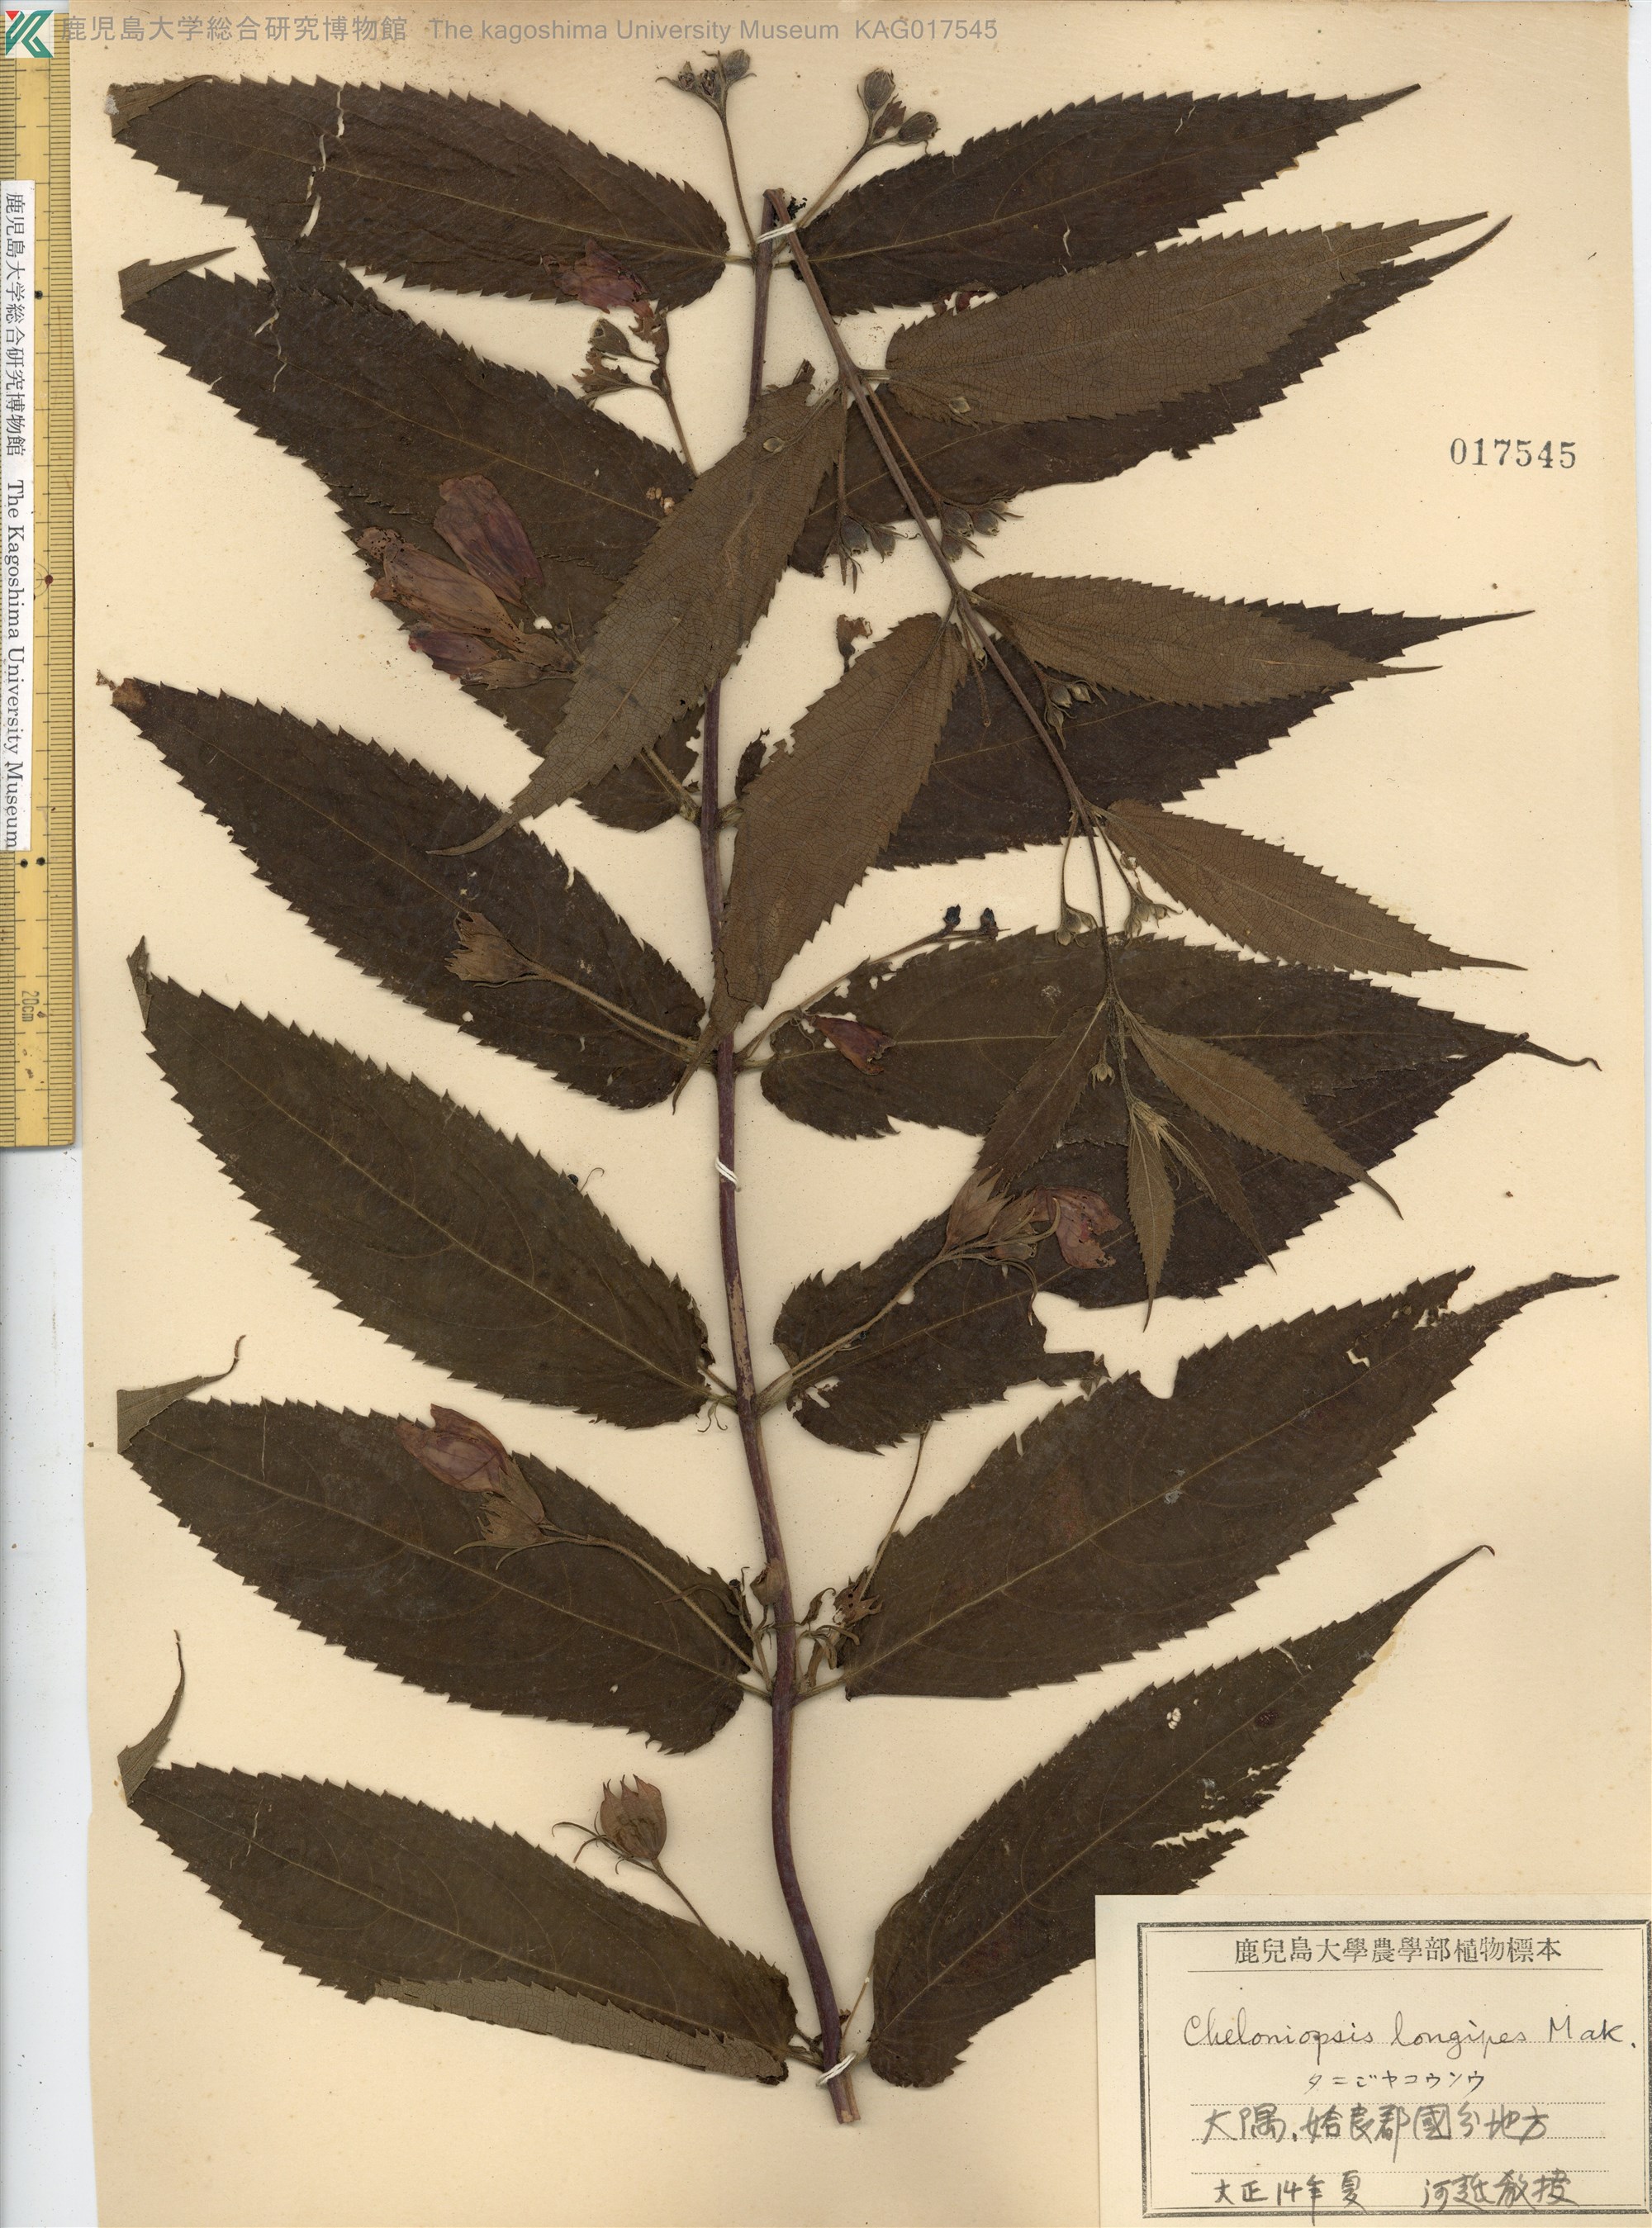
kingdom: Plantae
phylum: Tracheophyta
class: Magnoliopsida
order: Lamiales
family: Lamiaceae
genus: Chelonopsis
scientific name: Chelonopsis longipes
